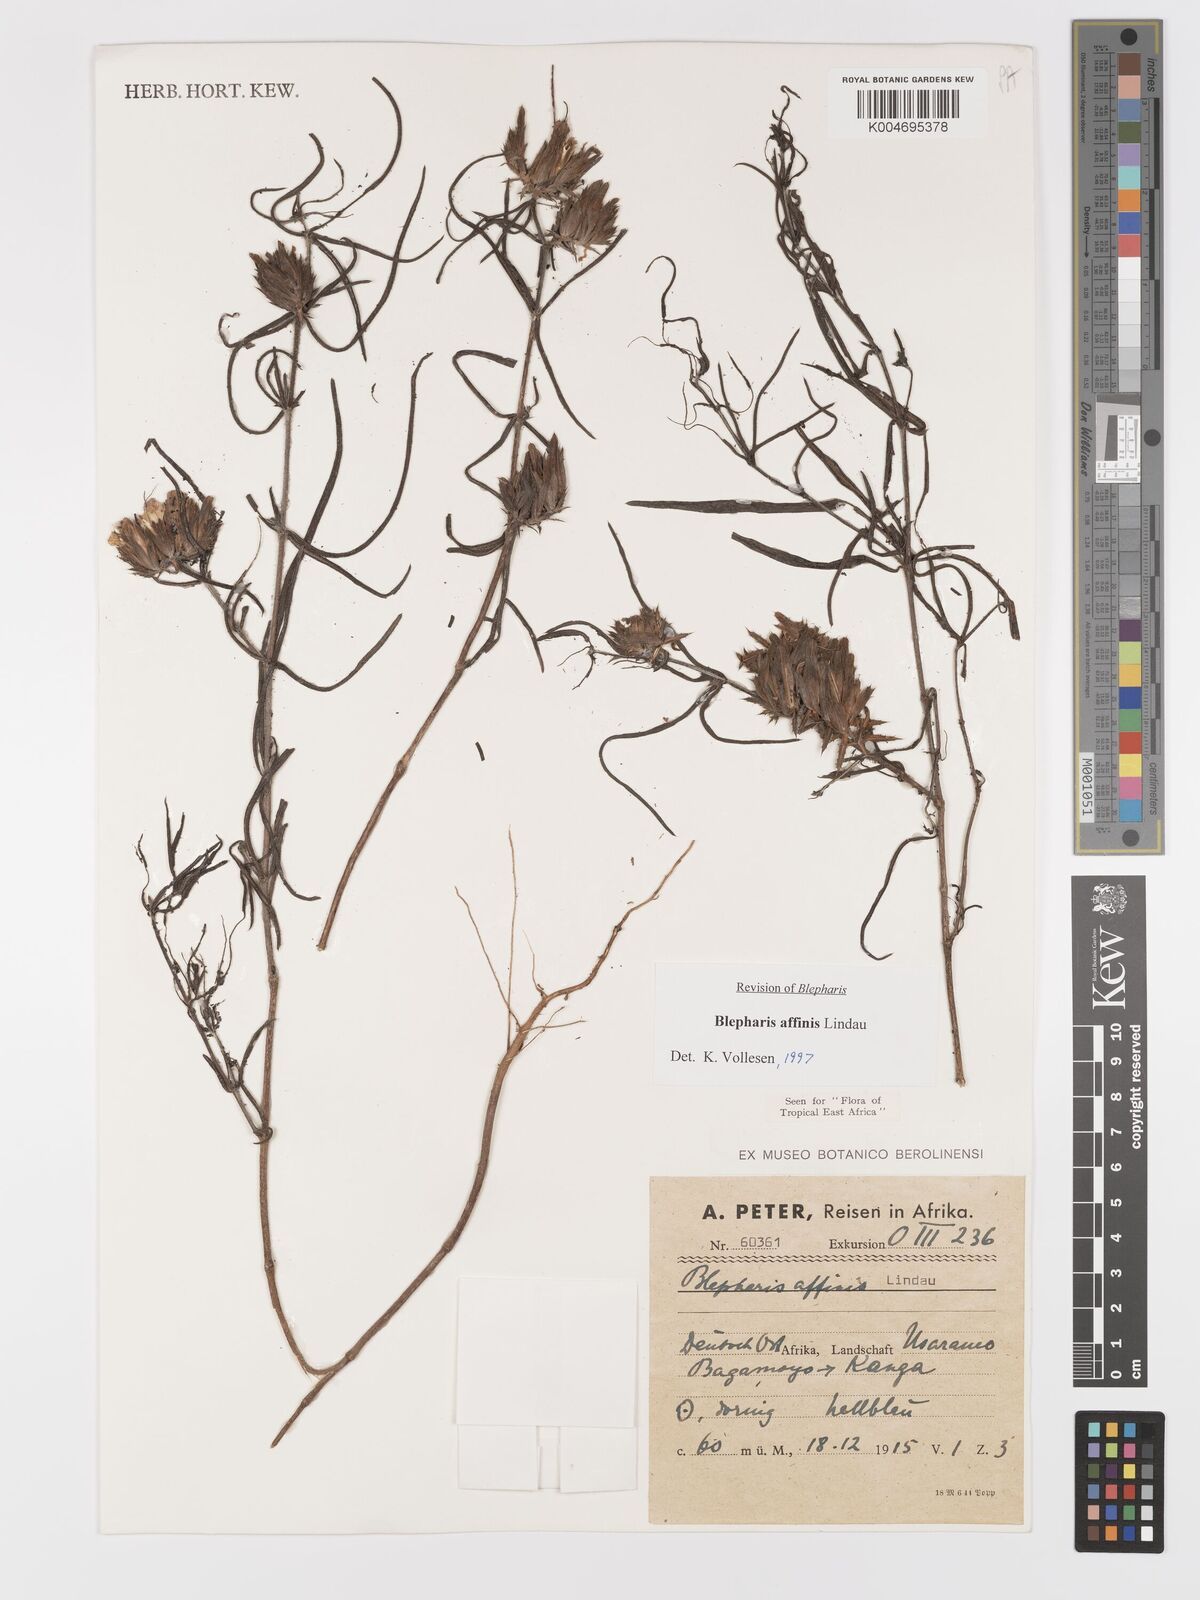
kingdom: Plantae
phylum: Tracheophyta
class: Magnoliopsida
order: Lamiales
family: Acanthaceae
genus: Blepharis
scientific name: Blepharis affinis
